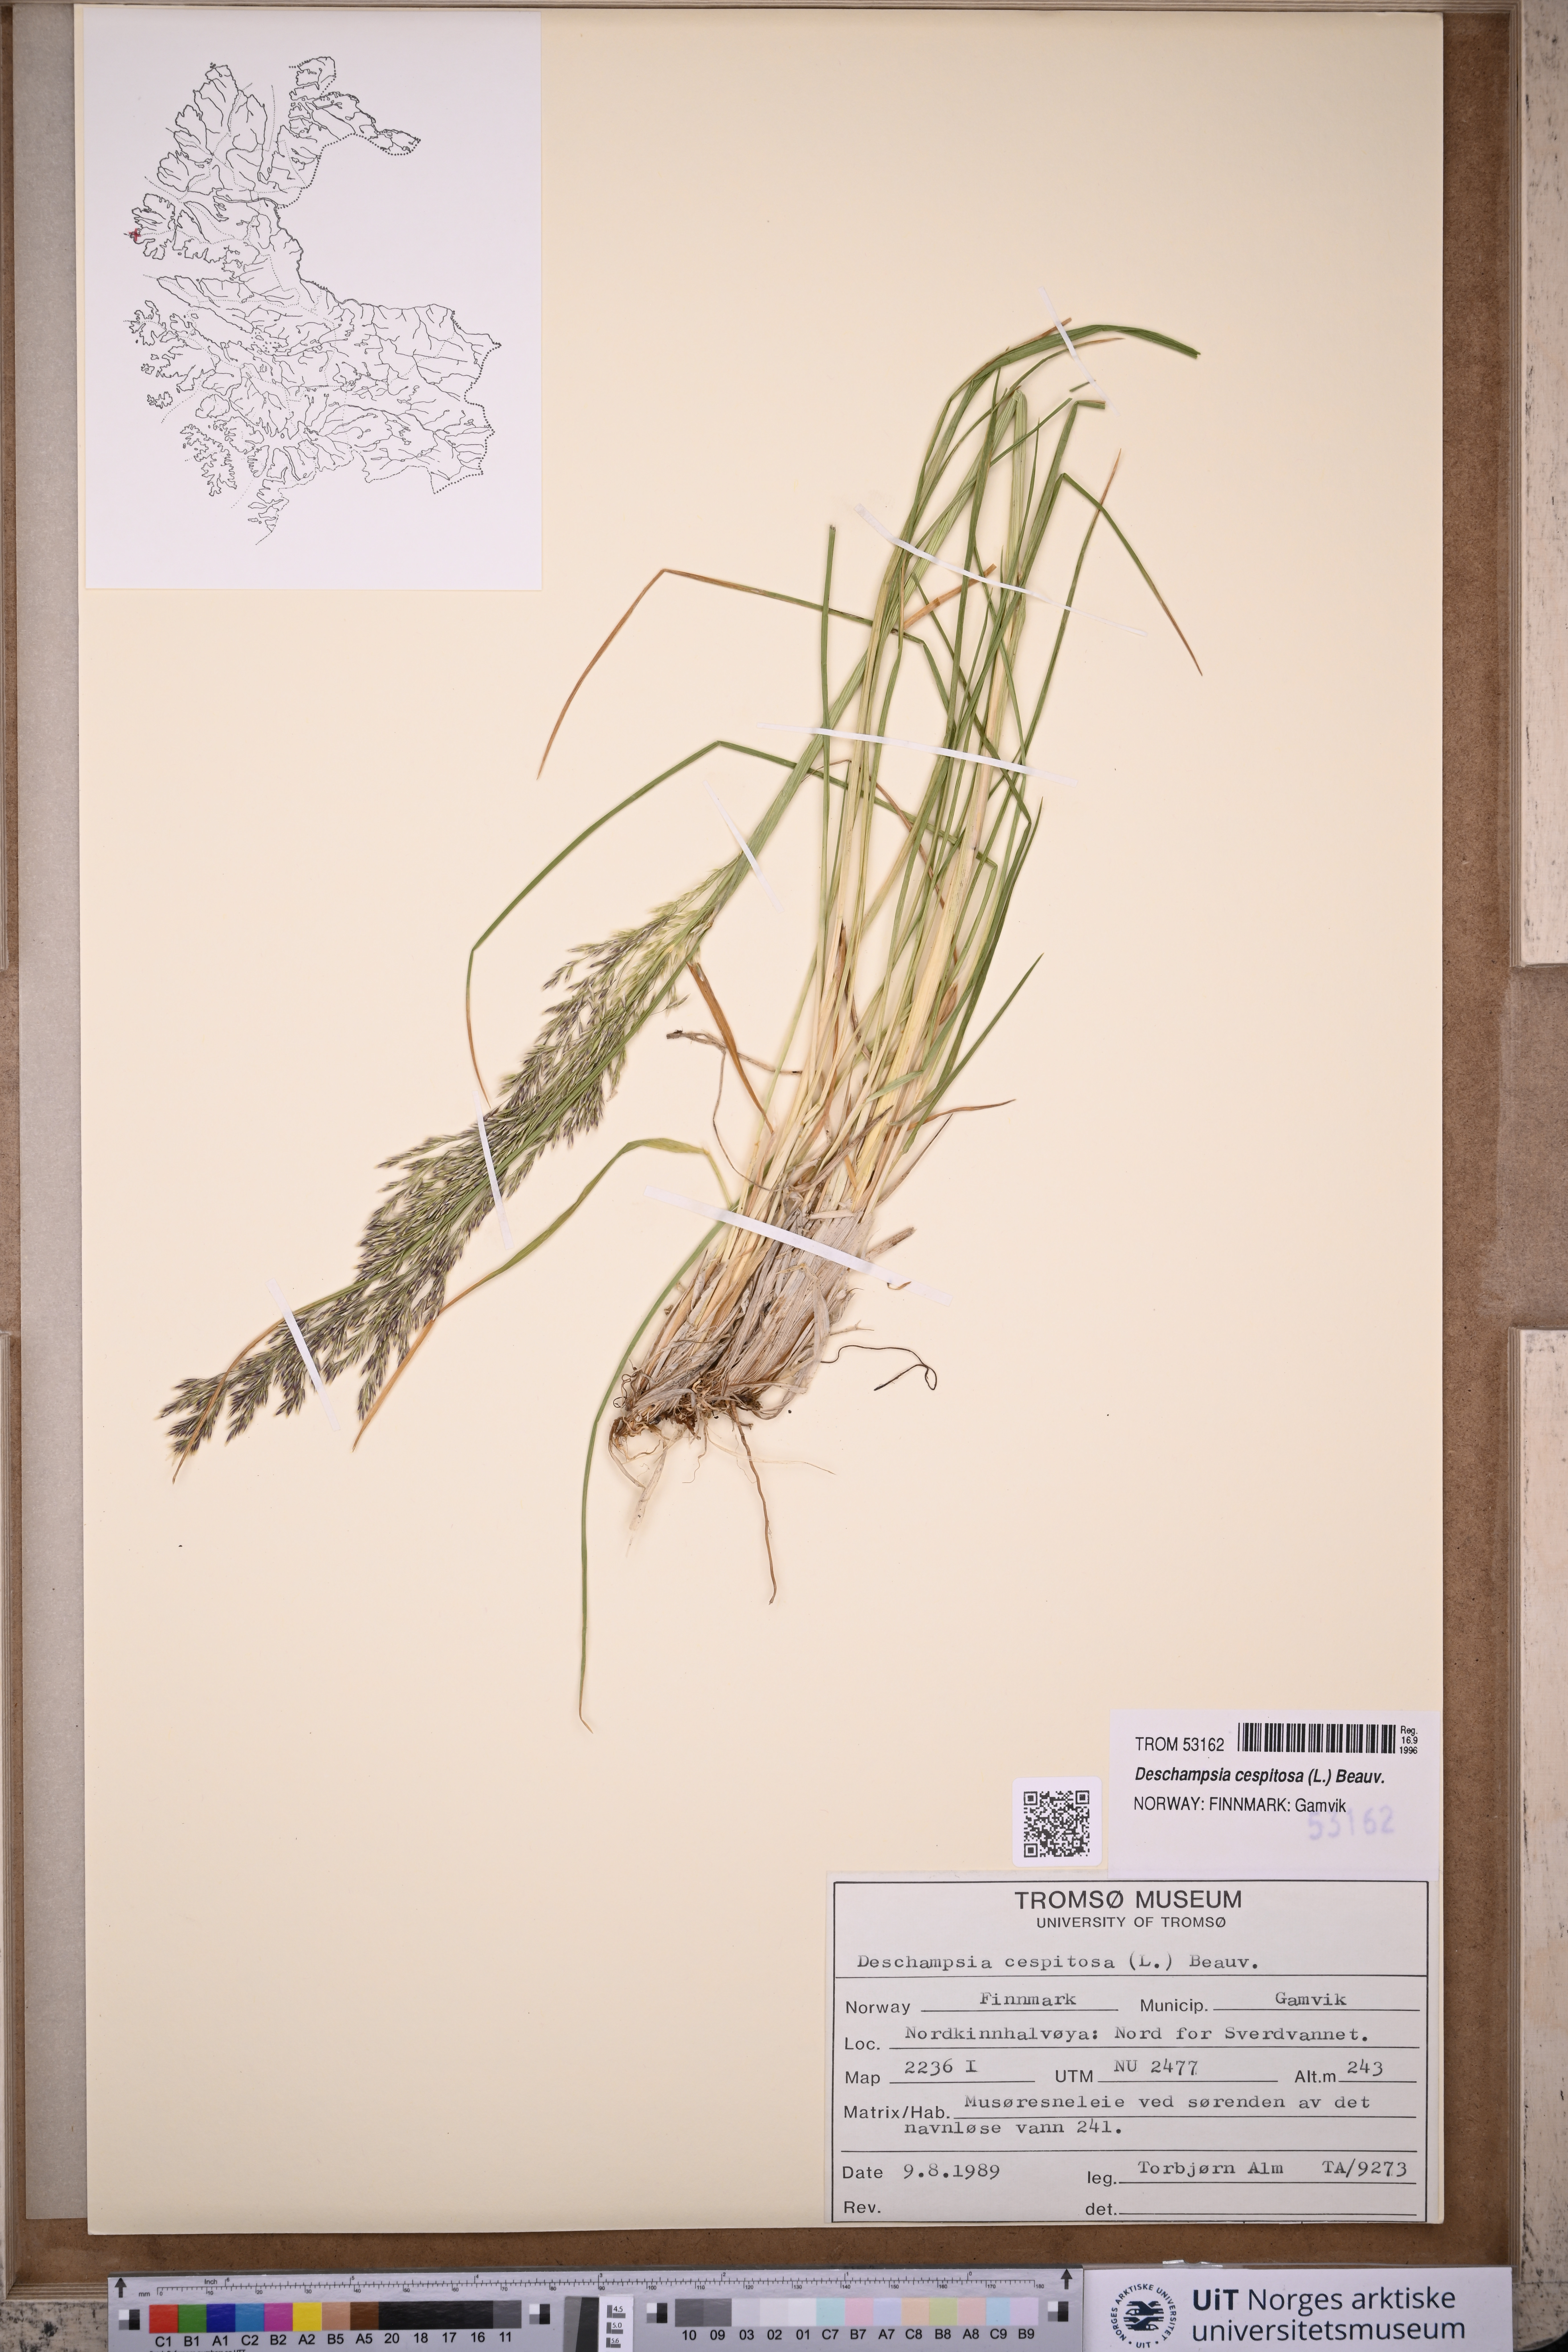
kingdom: Plantae
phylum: Tracheophyta
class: Liliopsida
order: Poales
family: Poaceae
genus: Deschampsia
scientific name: Deschampsia cespitosa
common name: Tufted hair-grass
